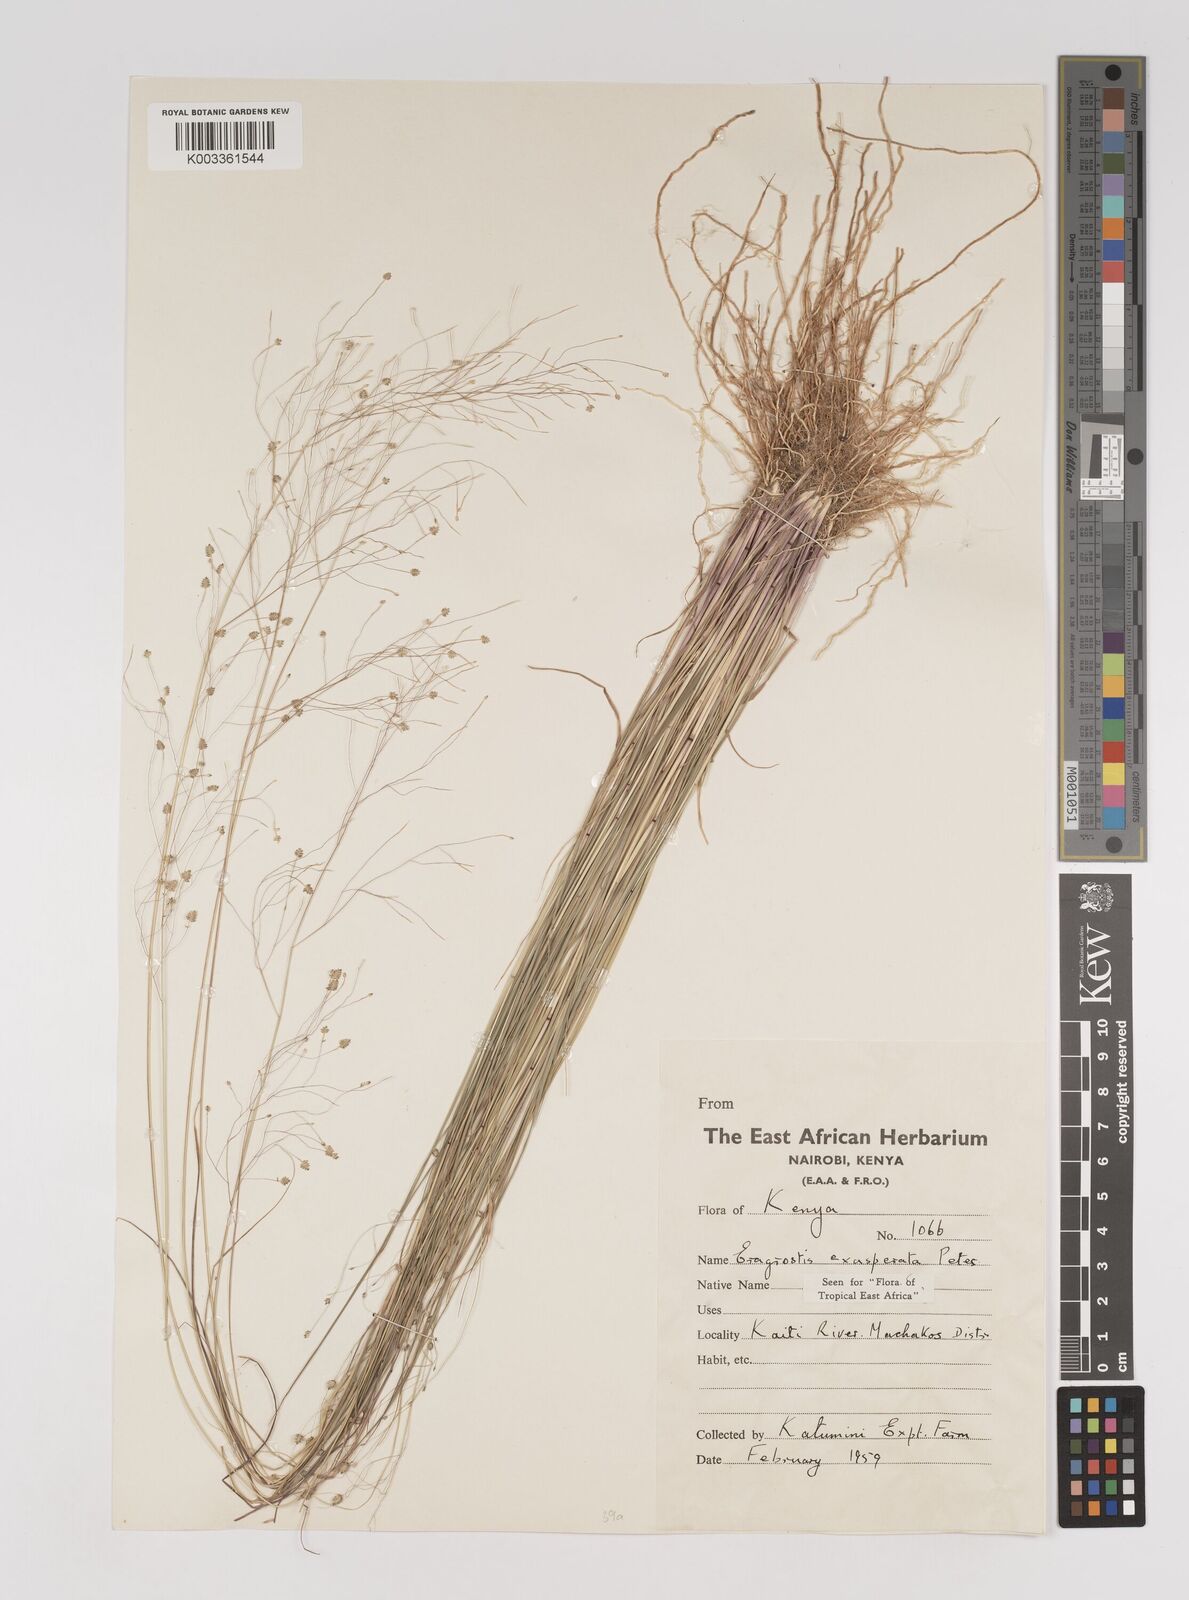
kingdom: Plantae
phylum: Tracheophyta
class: Liliopsida
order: Poales
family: Poaceae
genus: Eragrostis
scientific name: Eragrostis exasperata
